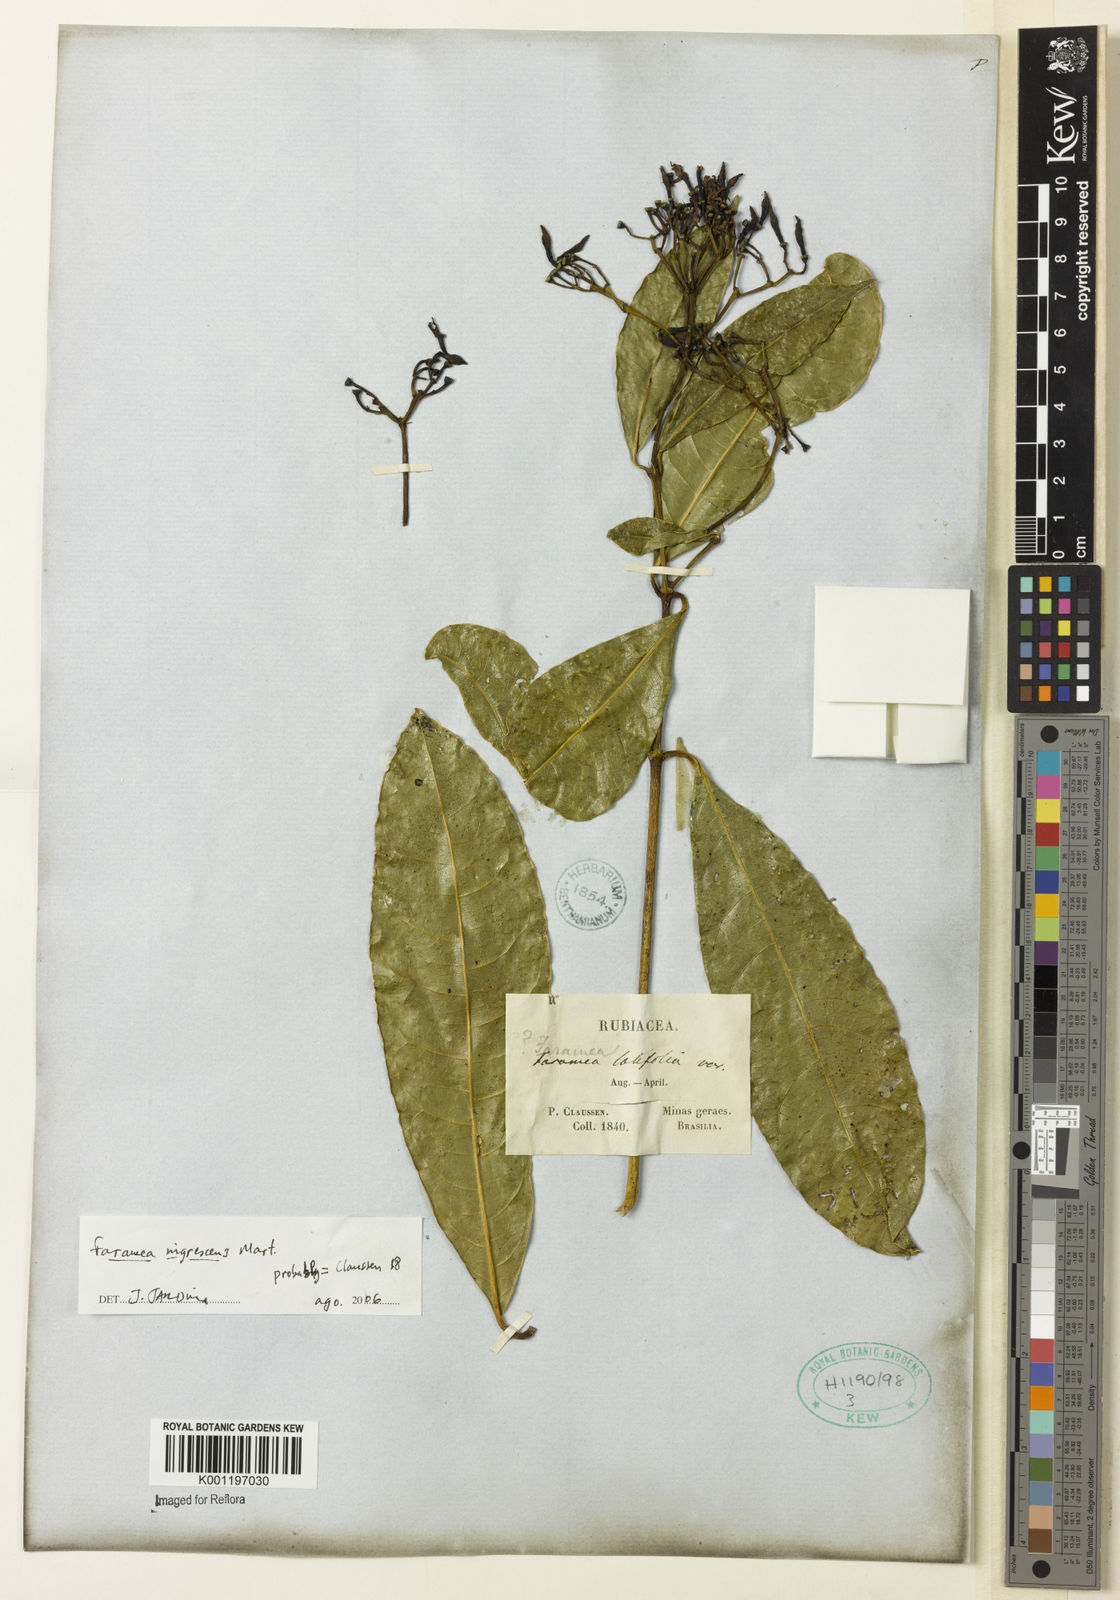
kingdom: Plantae
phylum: Tracheophyta
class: Magnoliopsida
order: Gentianales
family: Rubiaceae
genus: Faramea
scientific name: Faramea nigrescens
